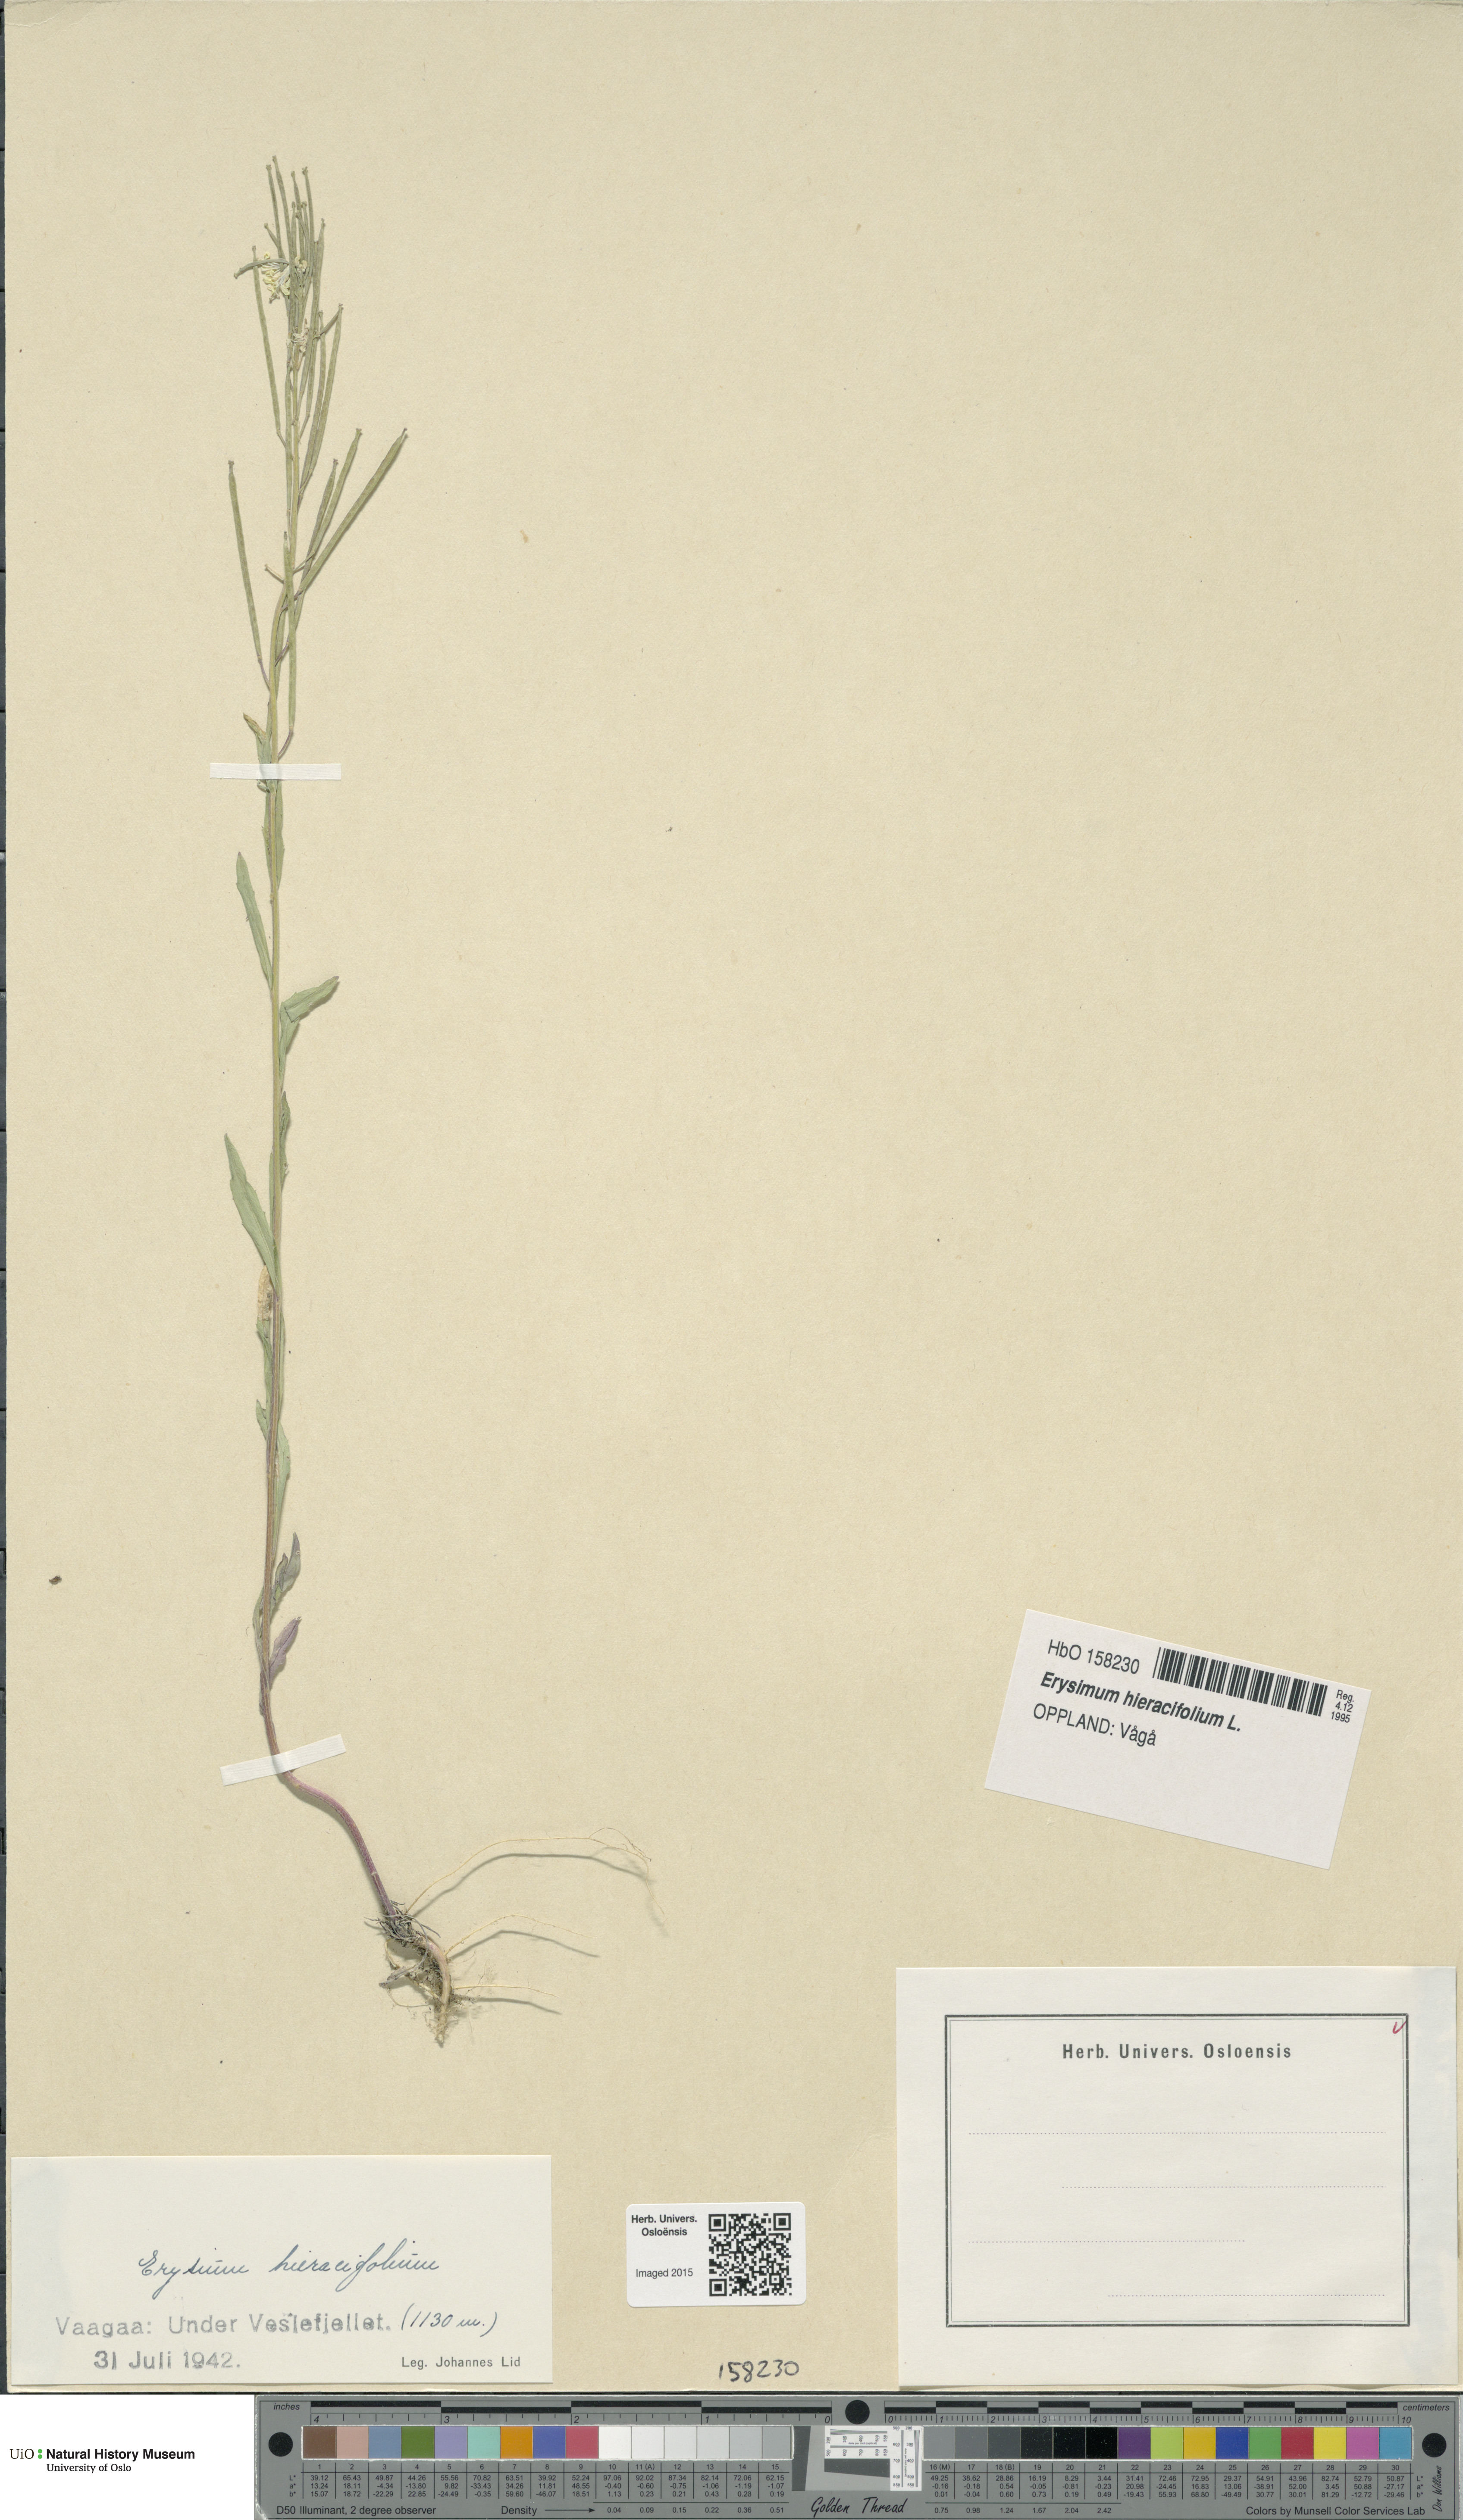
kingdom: Plantae
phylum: Tracheophyta
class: Magnoliopsida
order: Brassicales
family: Brassicaceae
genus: Erysimum
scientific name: Erysimum virgatum
